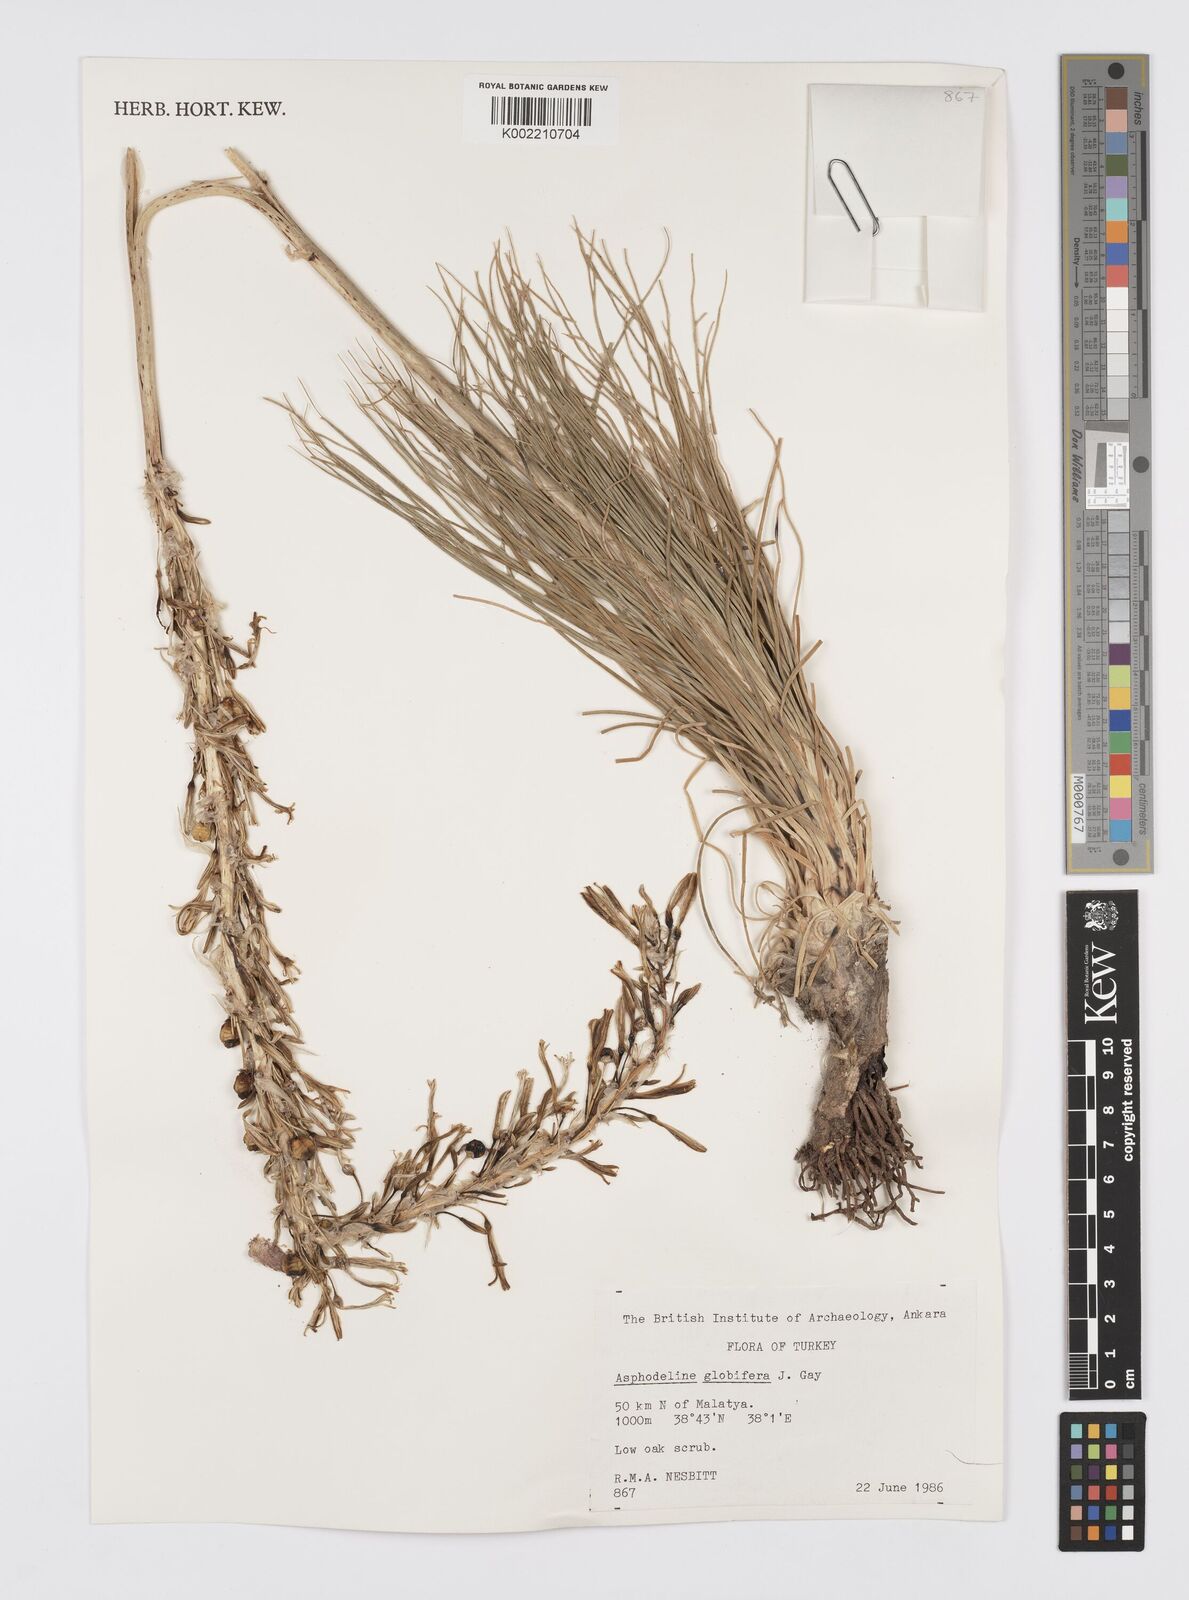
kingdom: Plantae
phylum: Tracheophyta
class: Liliopsida
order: Asparagales
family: Asphodelaceae
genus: Asphodeline
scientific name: Asphodeline globifera
